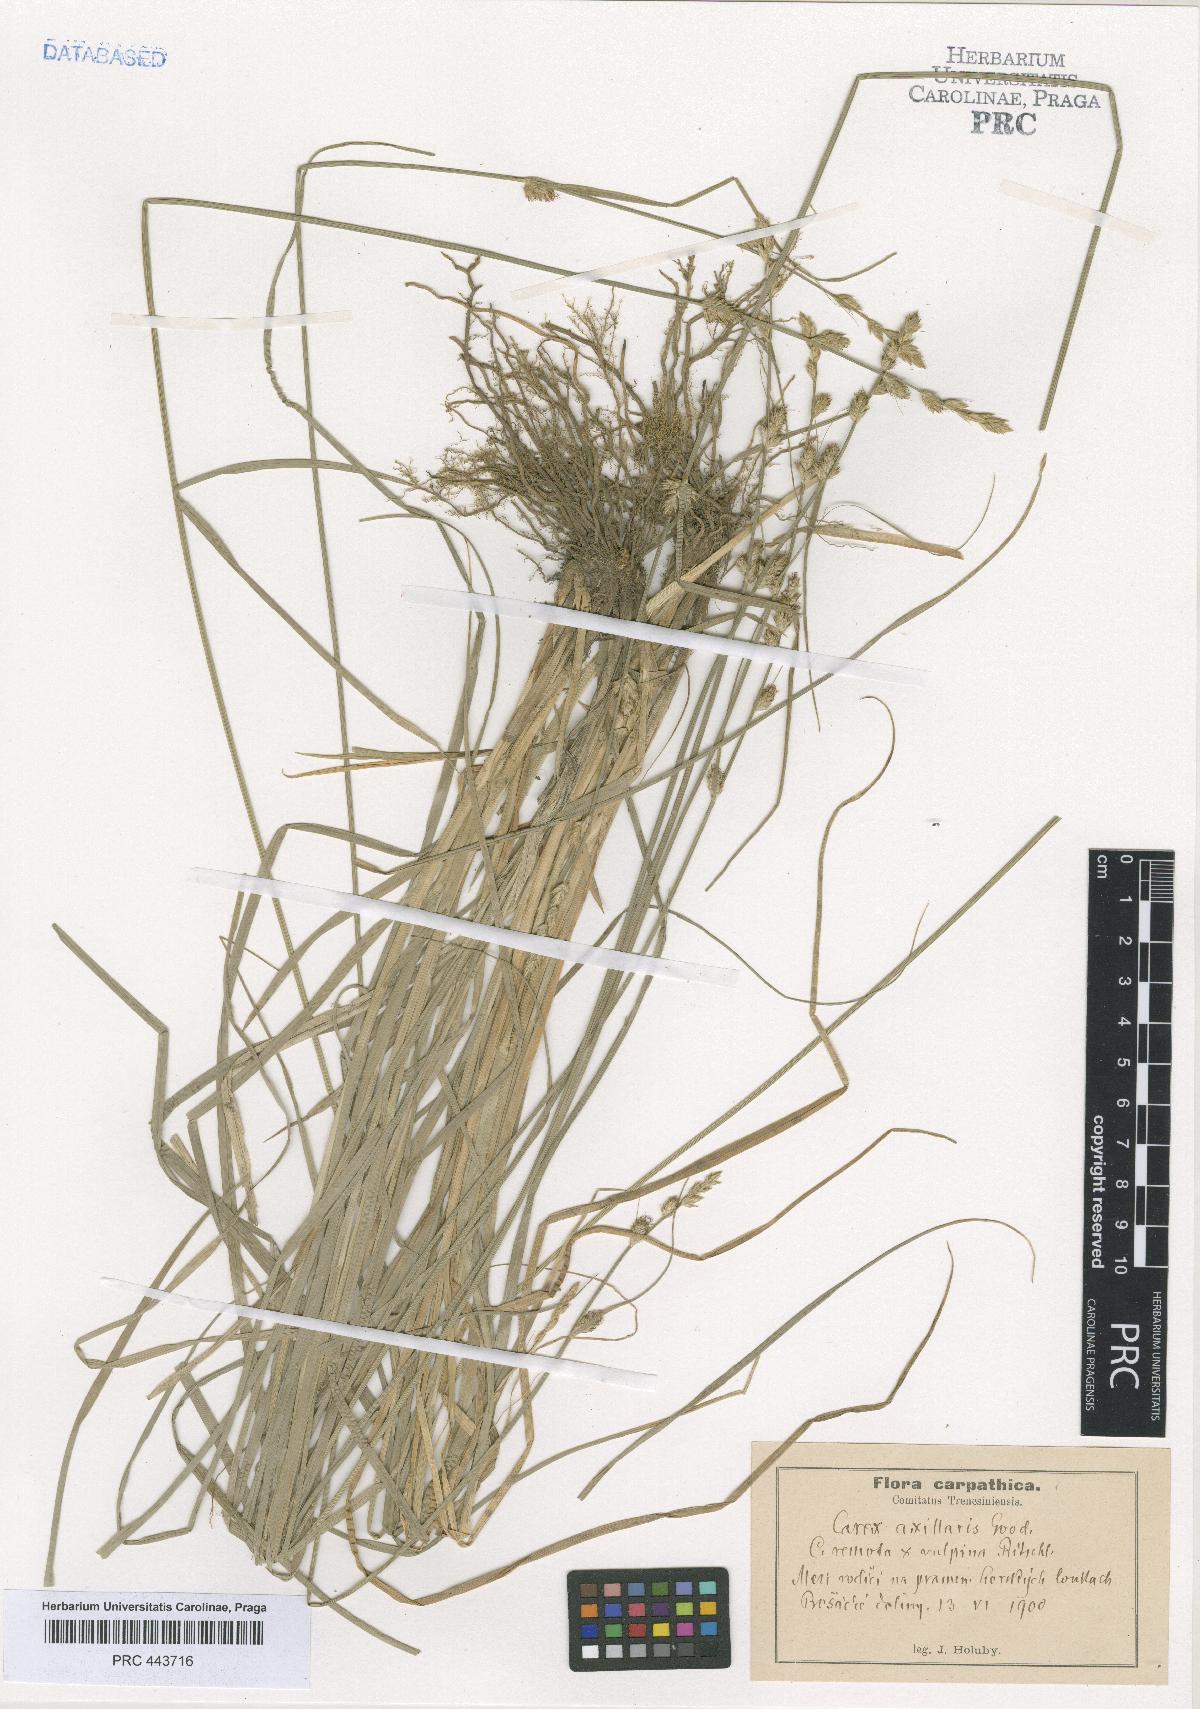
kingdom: Plantae
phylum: Tracheophyta
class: Liliopsida
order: Poales
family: Cyperaceae
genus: Carex
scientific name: Carex pseudoaxillaris
